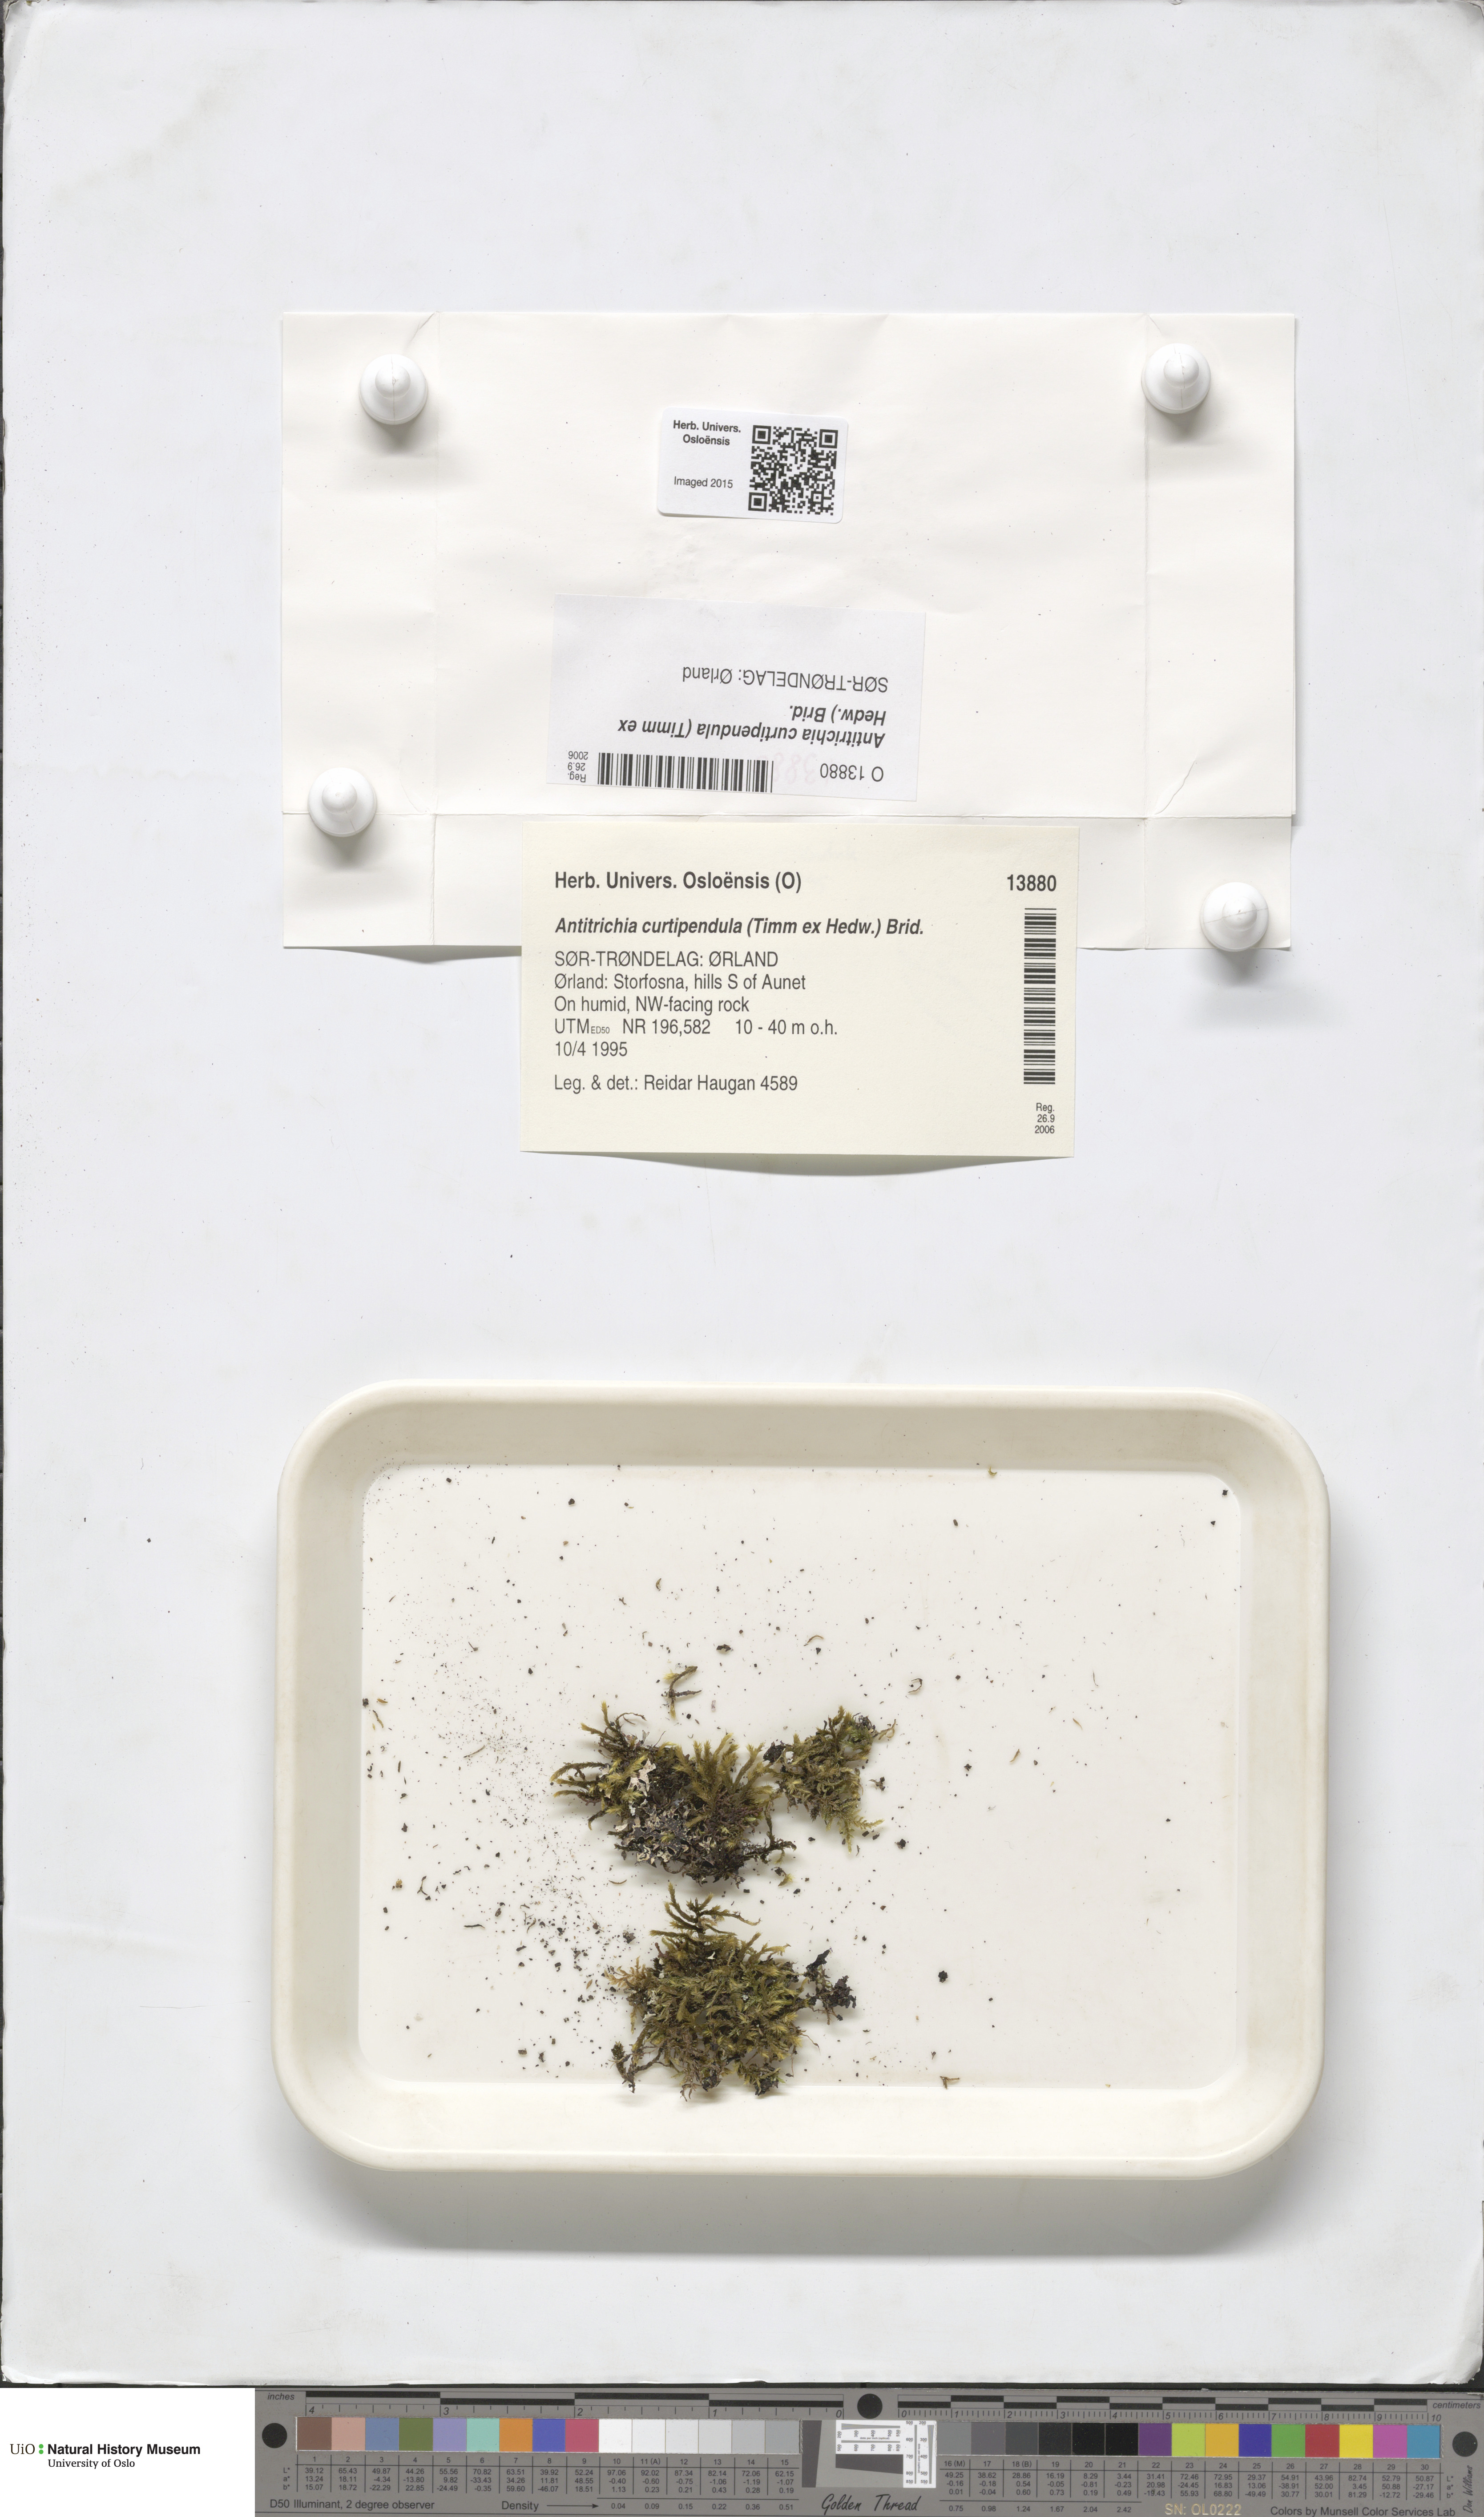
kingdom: Plantae
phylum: Bryophyta
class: Bryopsida
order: Hypnales
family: Antitrichiaceae
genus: Antitrichia
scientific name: Antitrichia curtipendula
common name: Pendulous wing-moss
